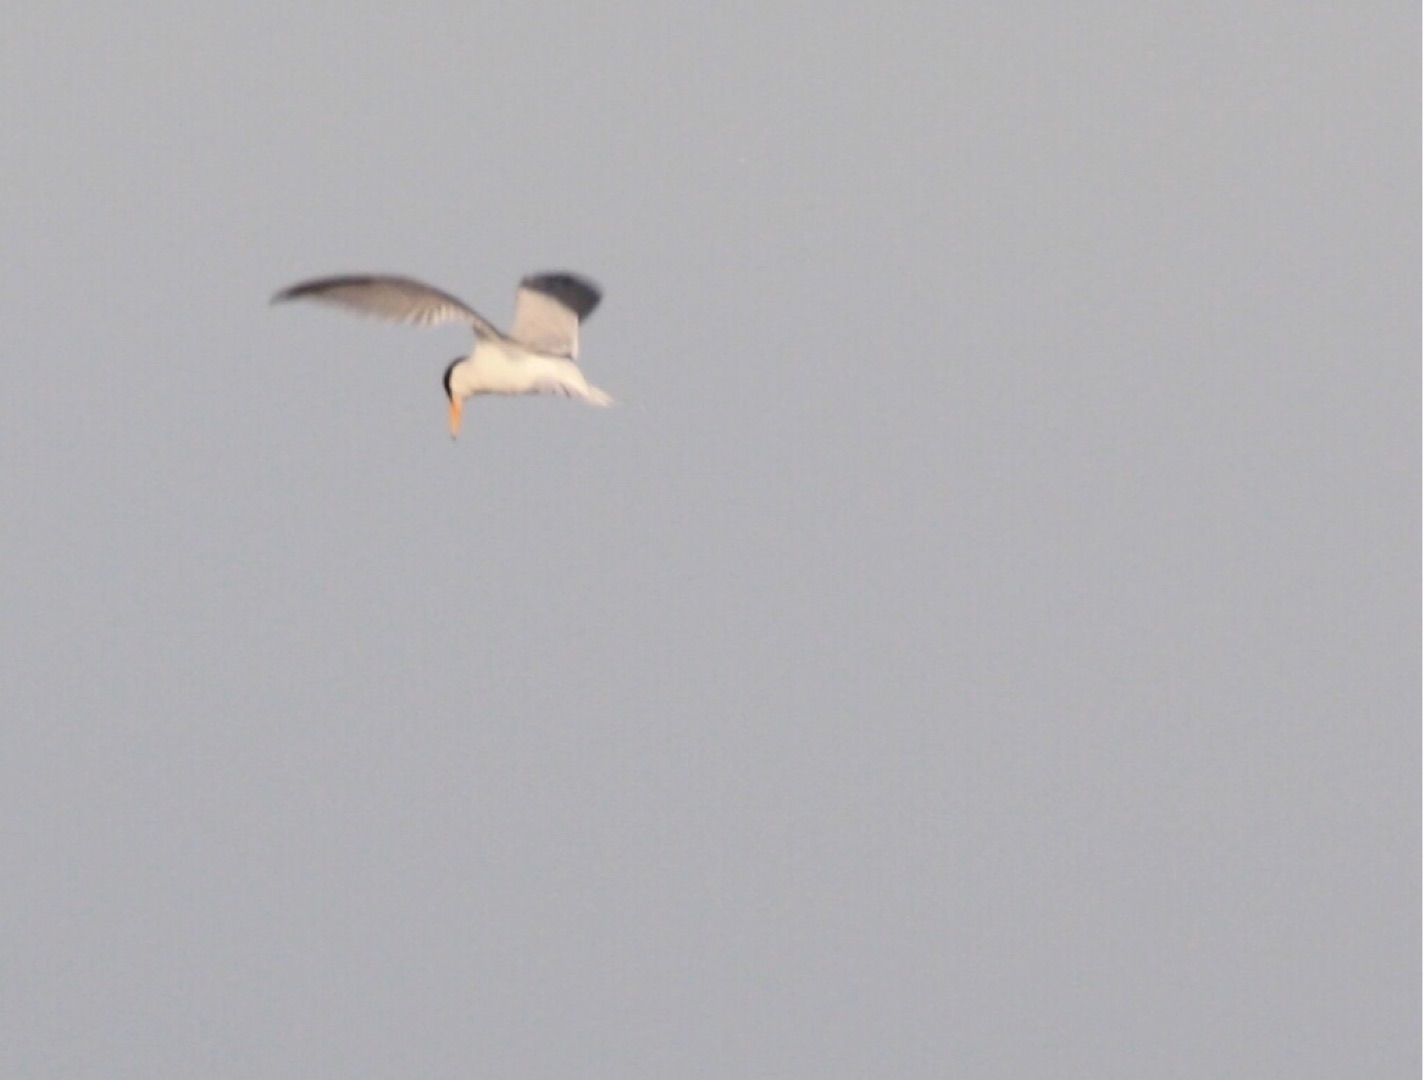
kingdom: Animalia
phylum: Chordata
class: Aves
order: Charadriiformes
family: Laridae
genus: Sternula
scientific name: Sternula albifrons
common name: Dværgterne
